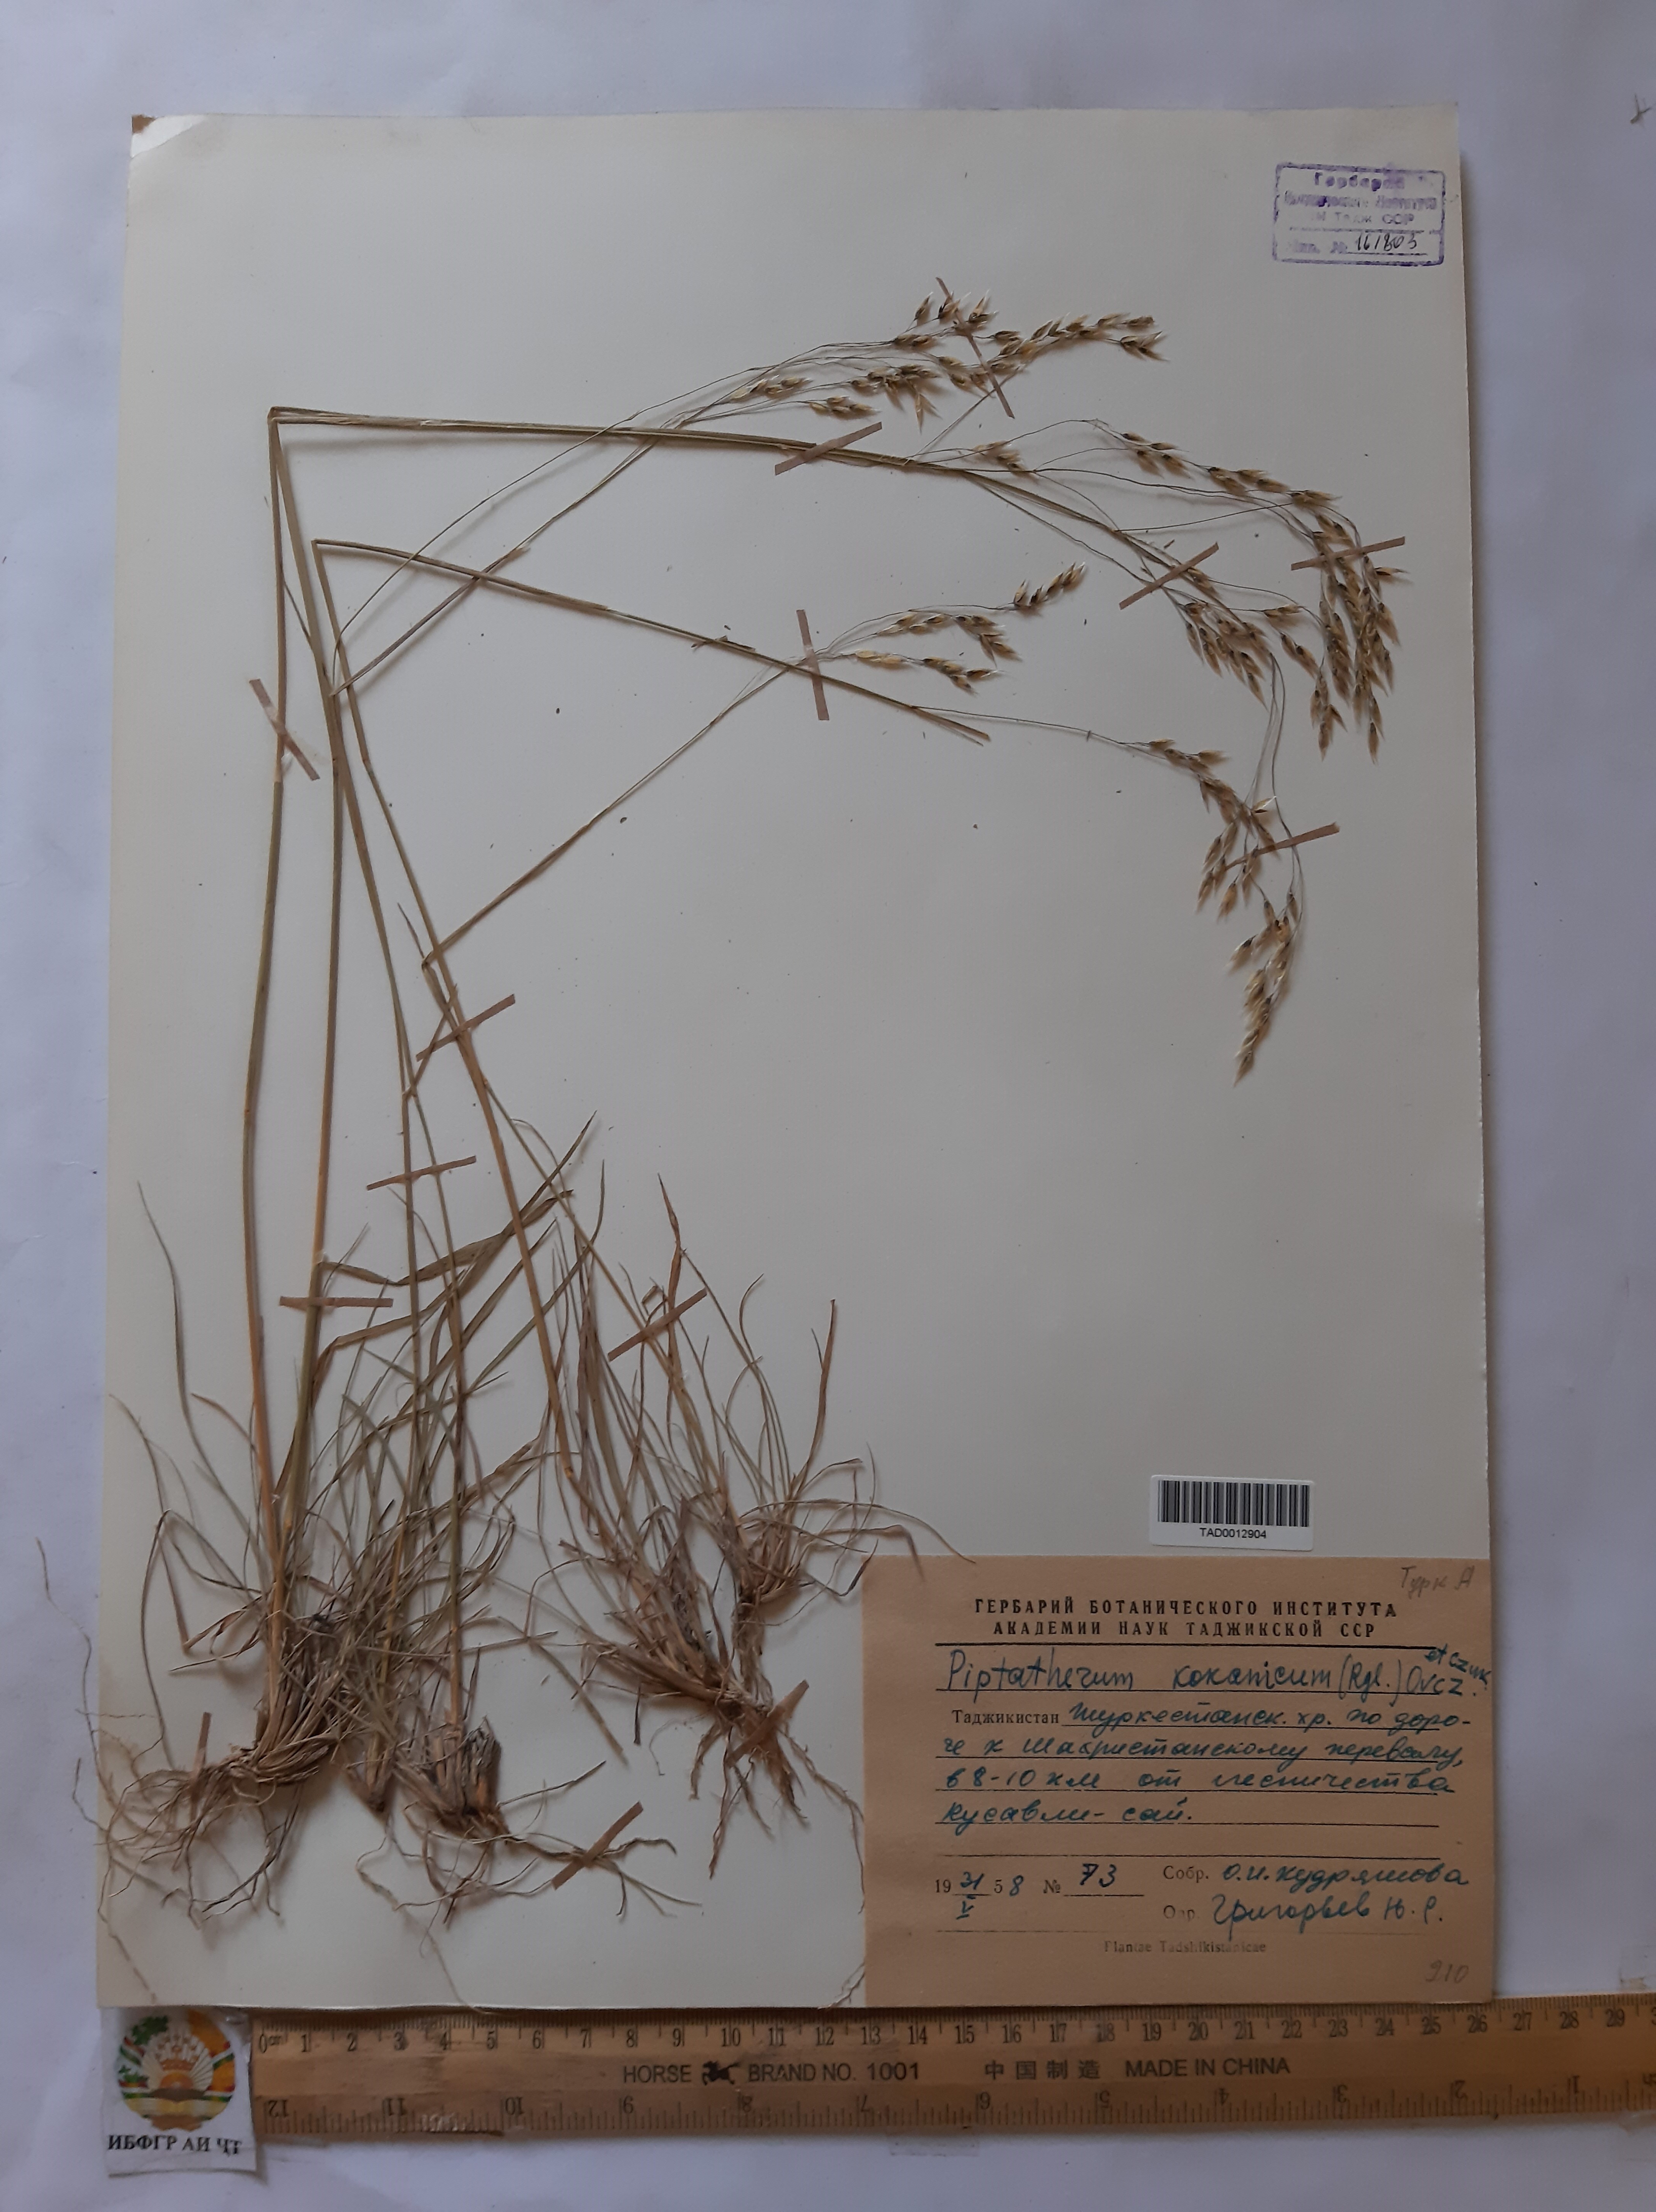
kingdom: Plantae
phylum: Tracheophyta
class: Liliopsida
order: Poales
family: Poaceae
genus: Piptatherum
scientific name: Piptatherum songaricum
